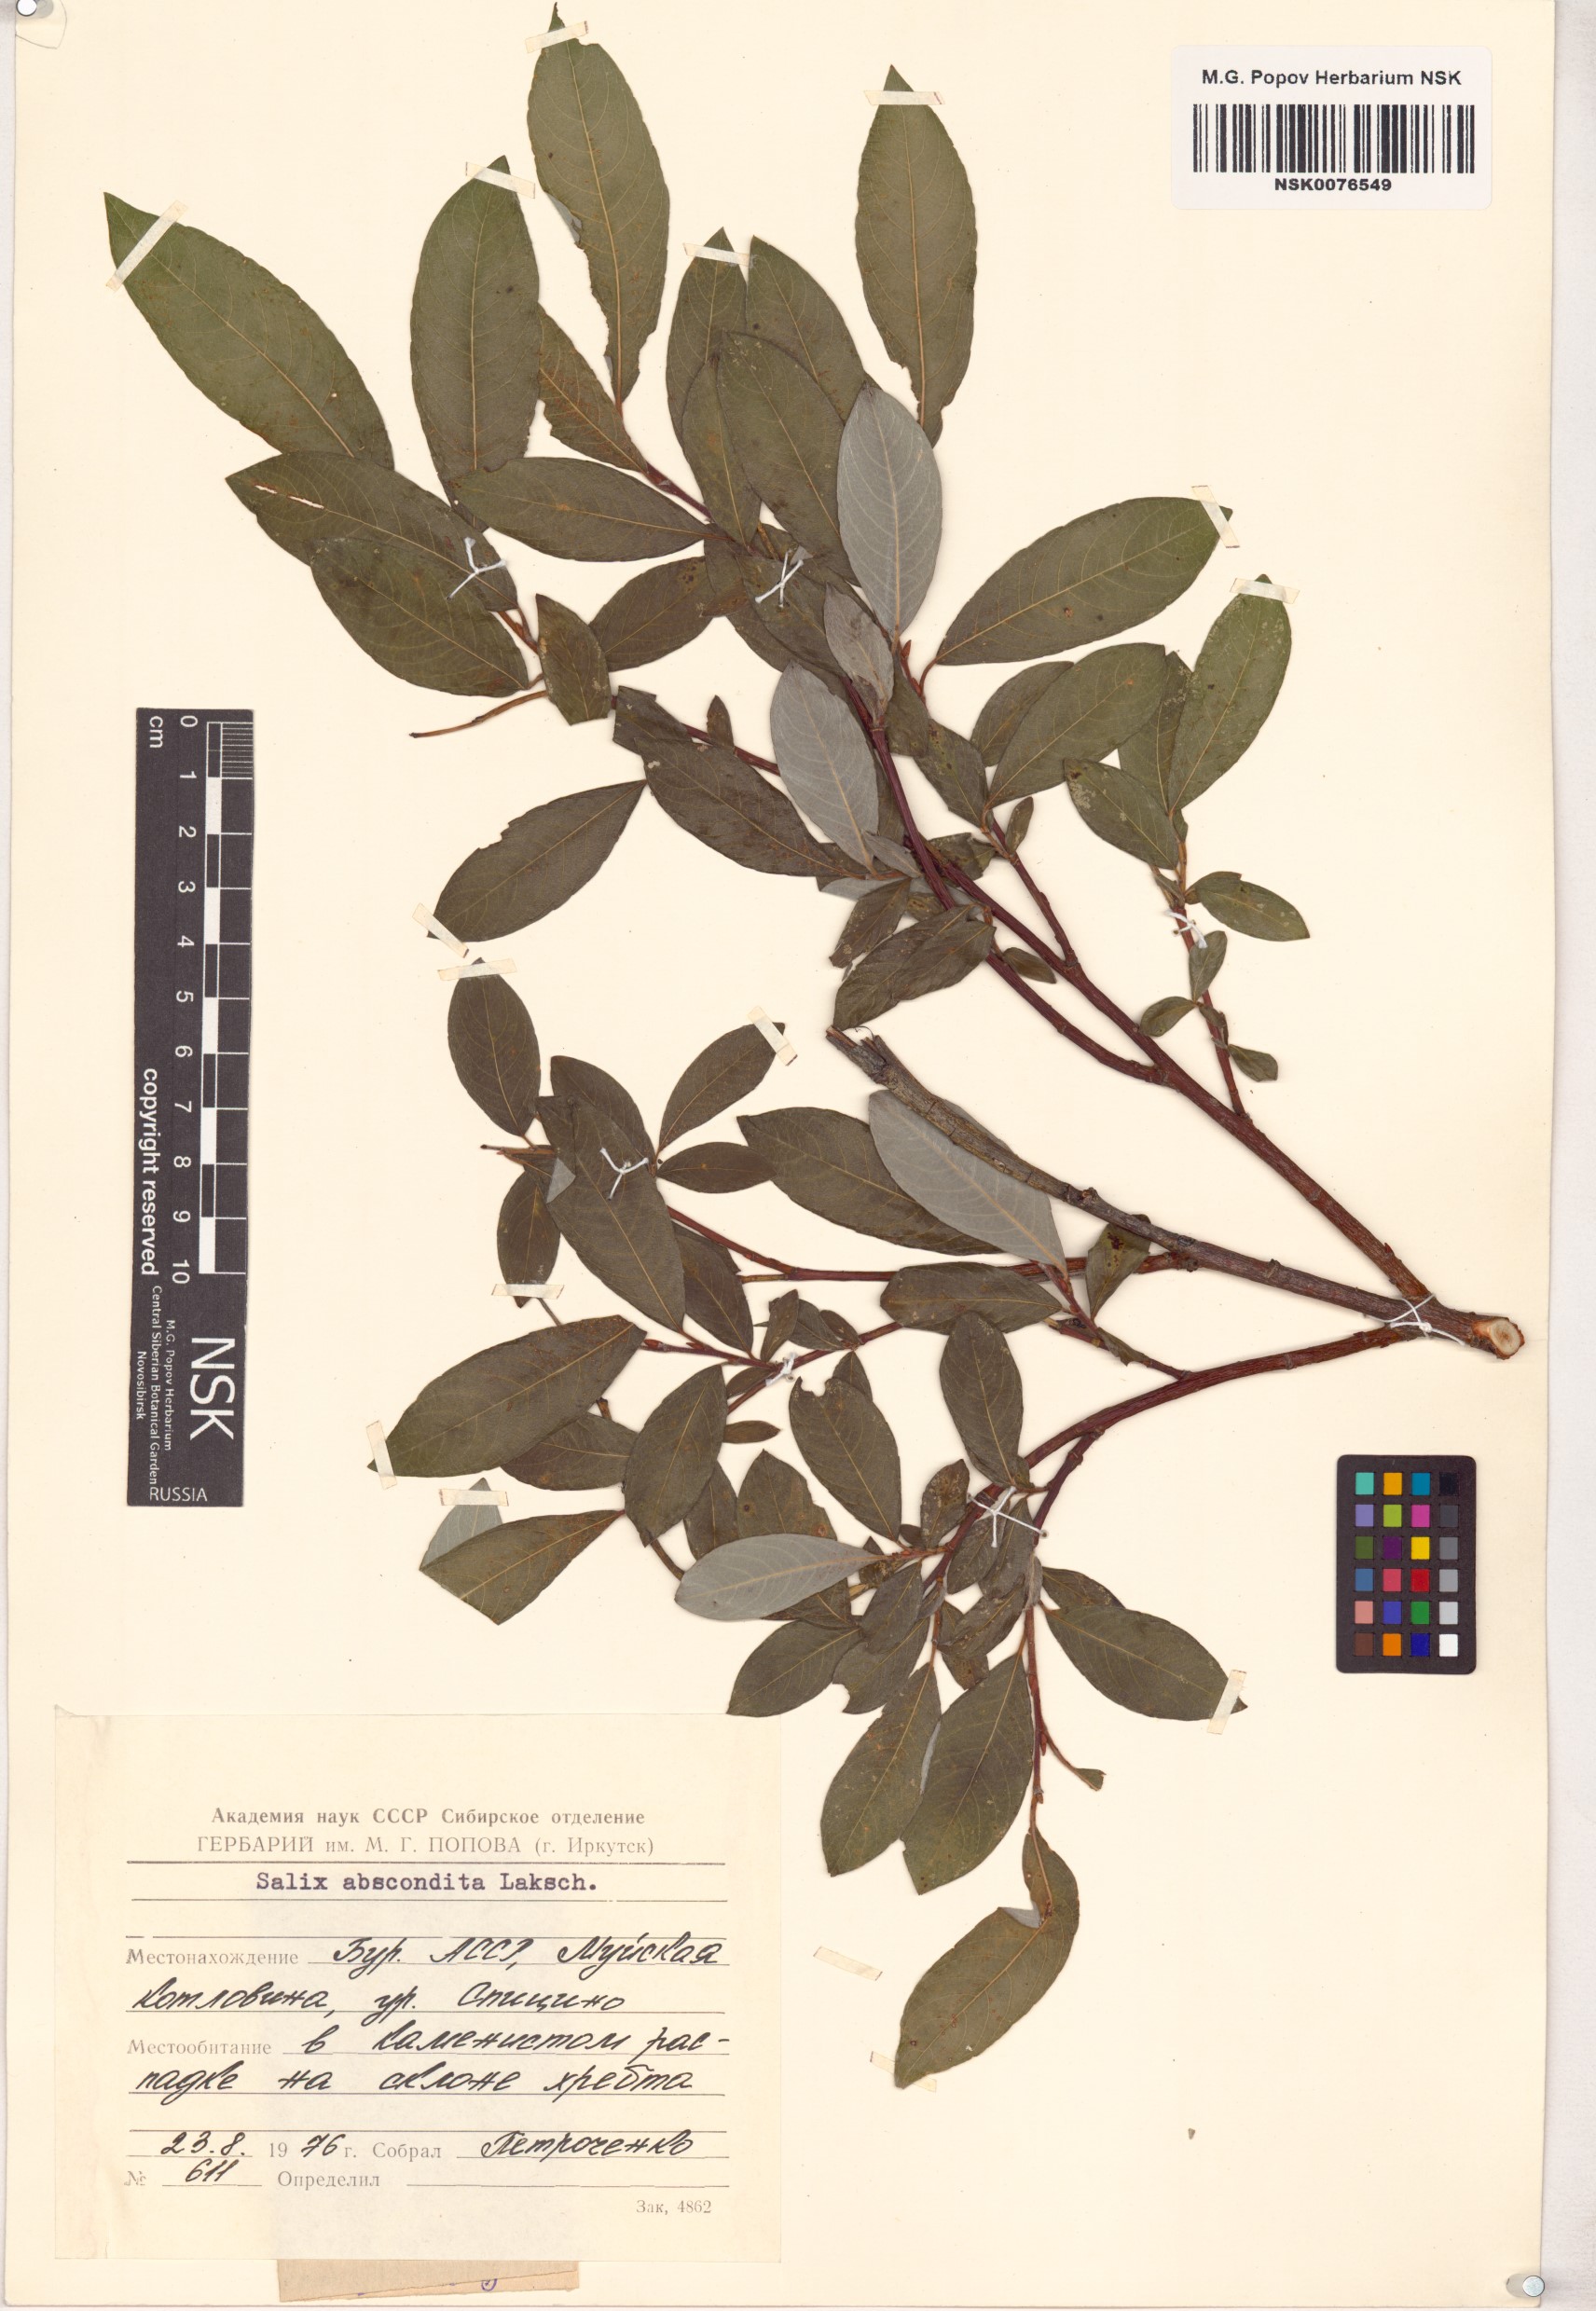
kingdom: Plantae
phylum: Tracheophyta
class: Magnoliopsida
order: Malpighiales
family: Salicaceae
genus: Salix
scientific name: Salix abscondita
